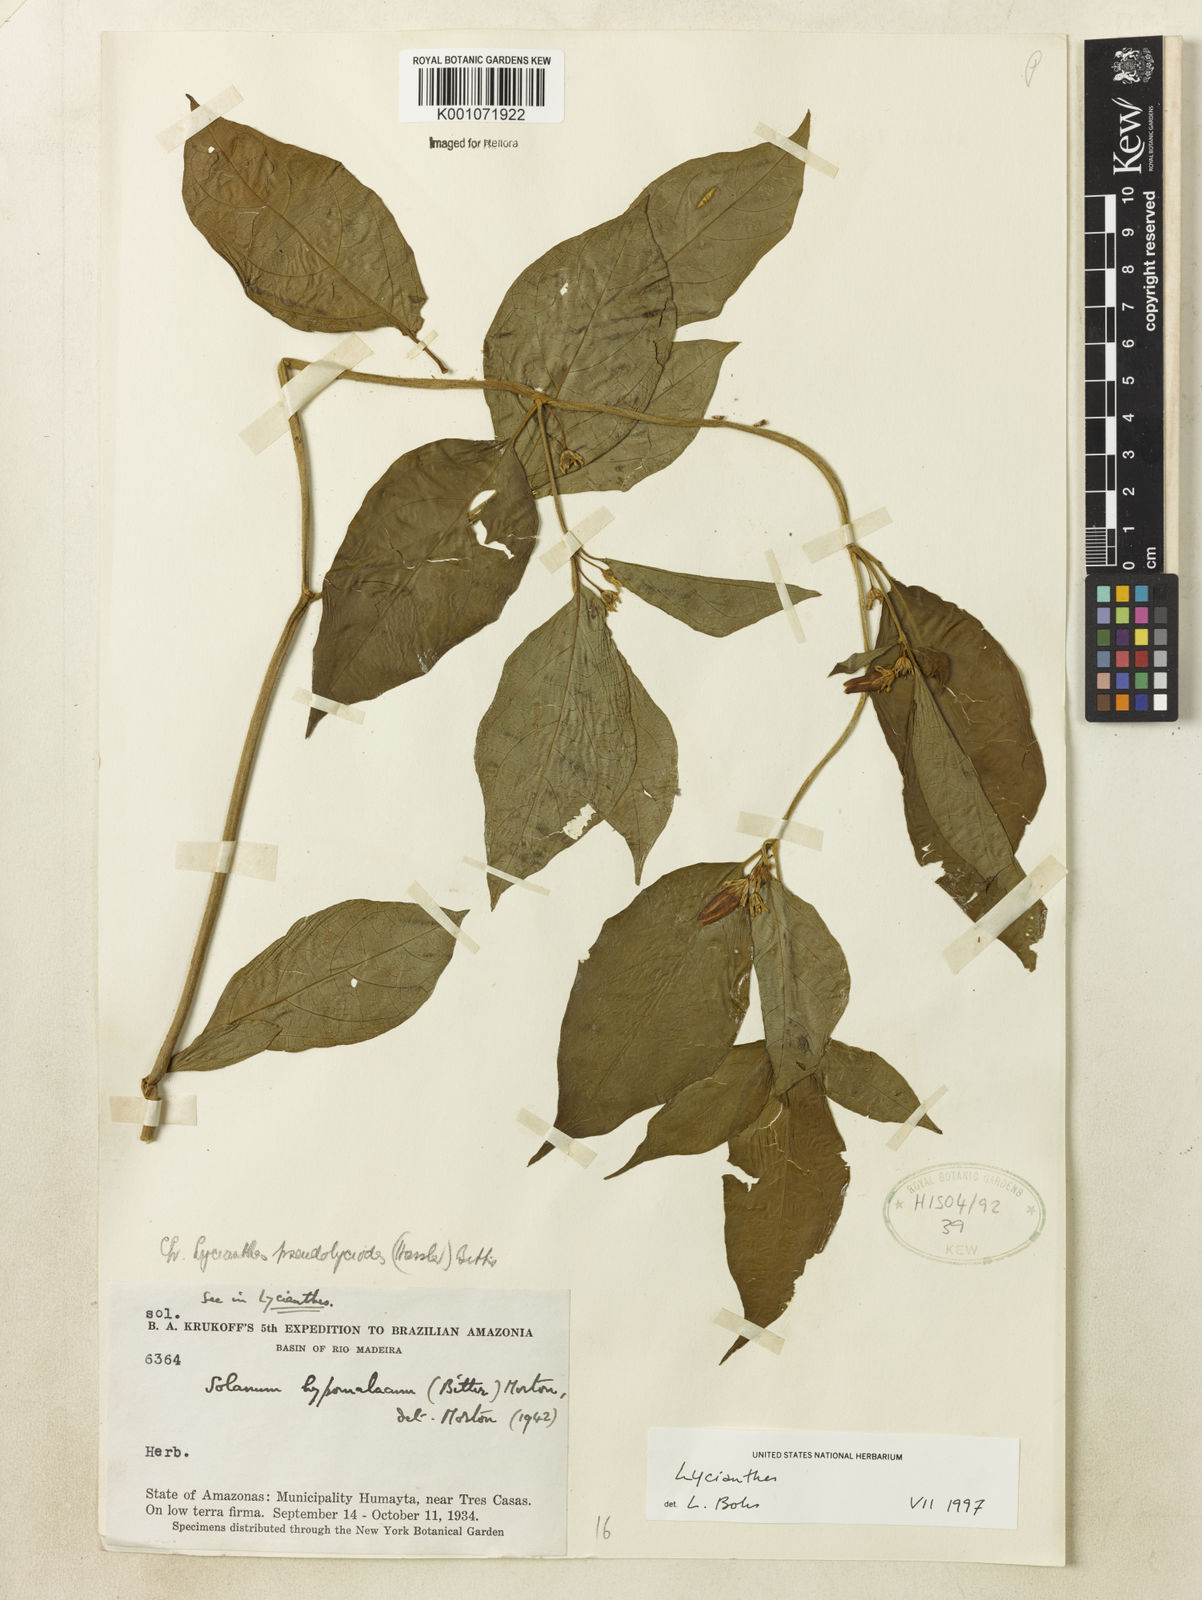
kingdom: Plantae
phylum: Tracheophyta
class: Magnoliopsida
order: Solanales
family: Solanaceae
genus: Lycianthes
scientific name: Lycianthes
